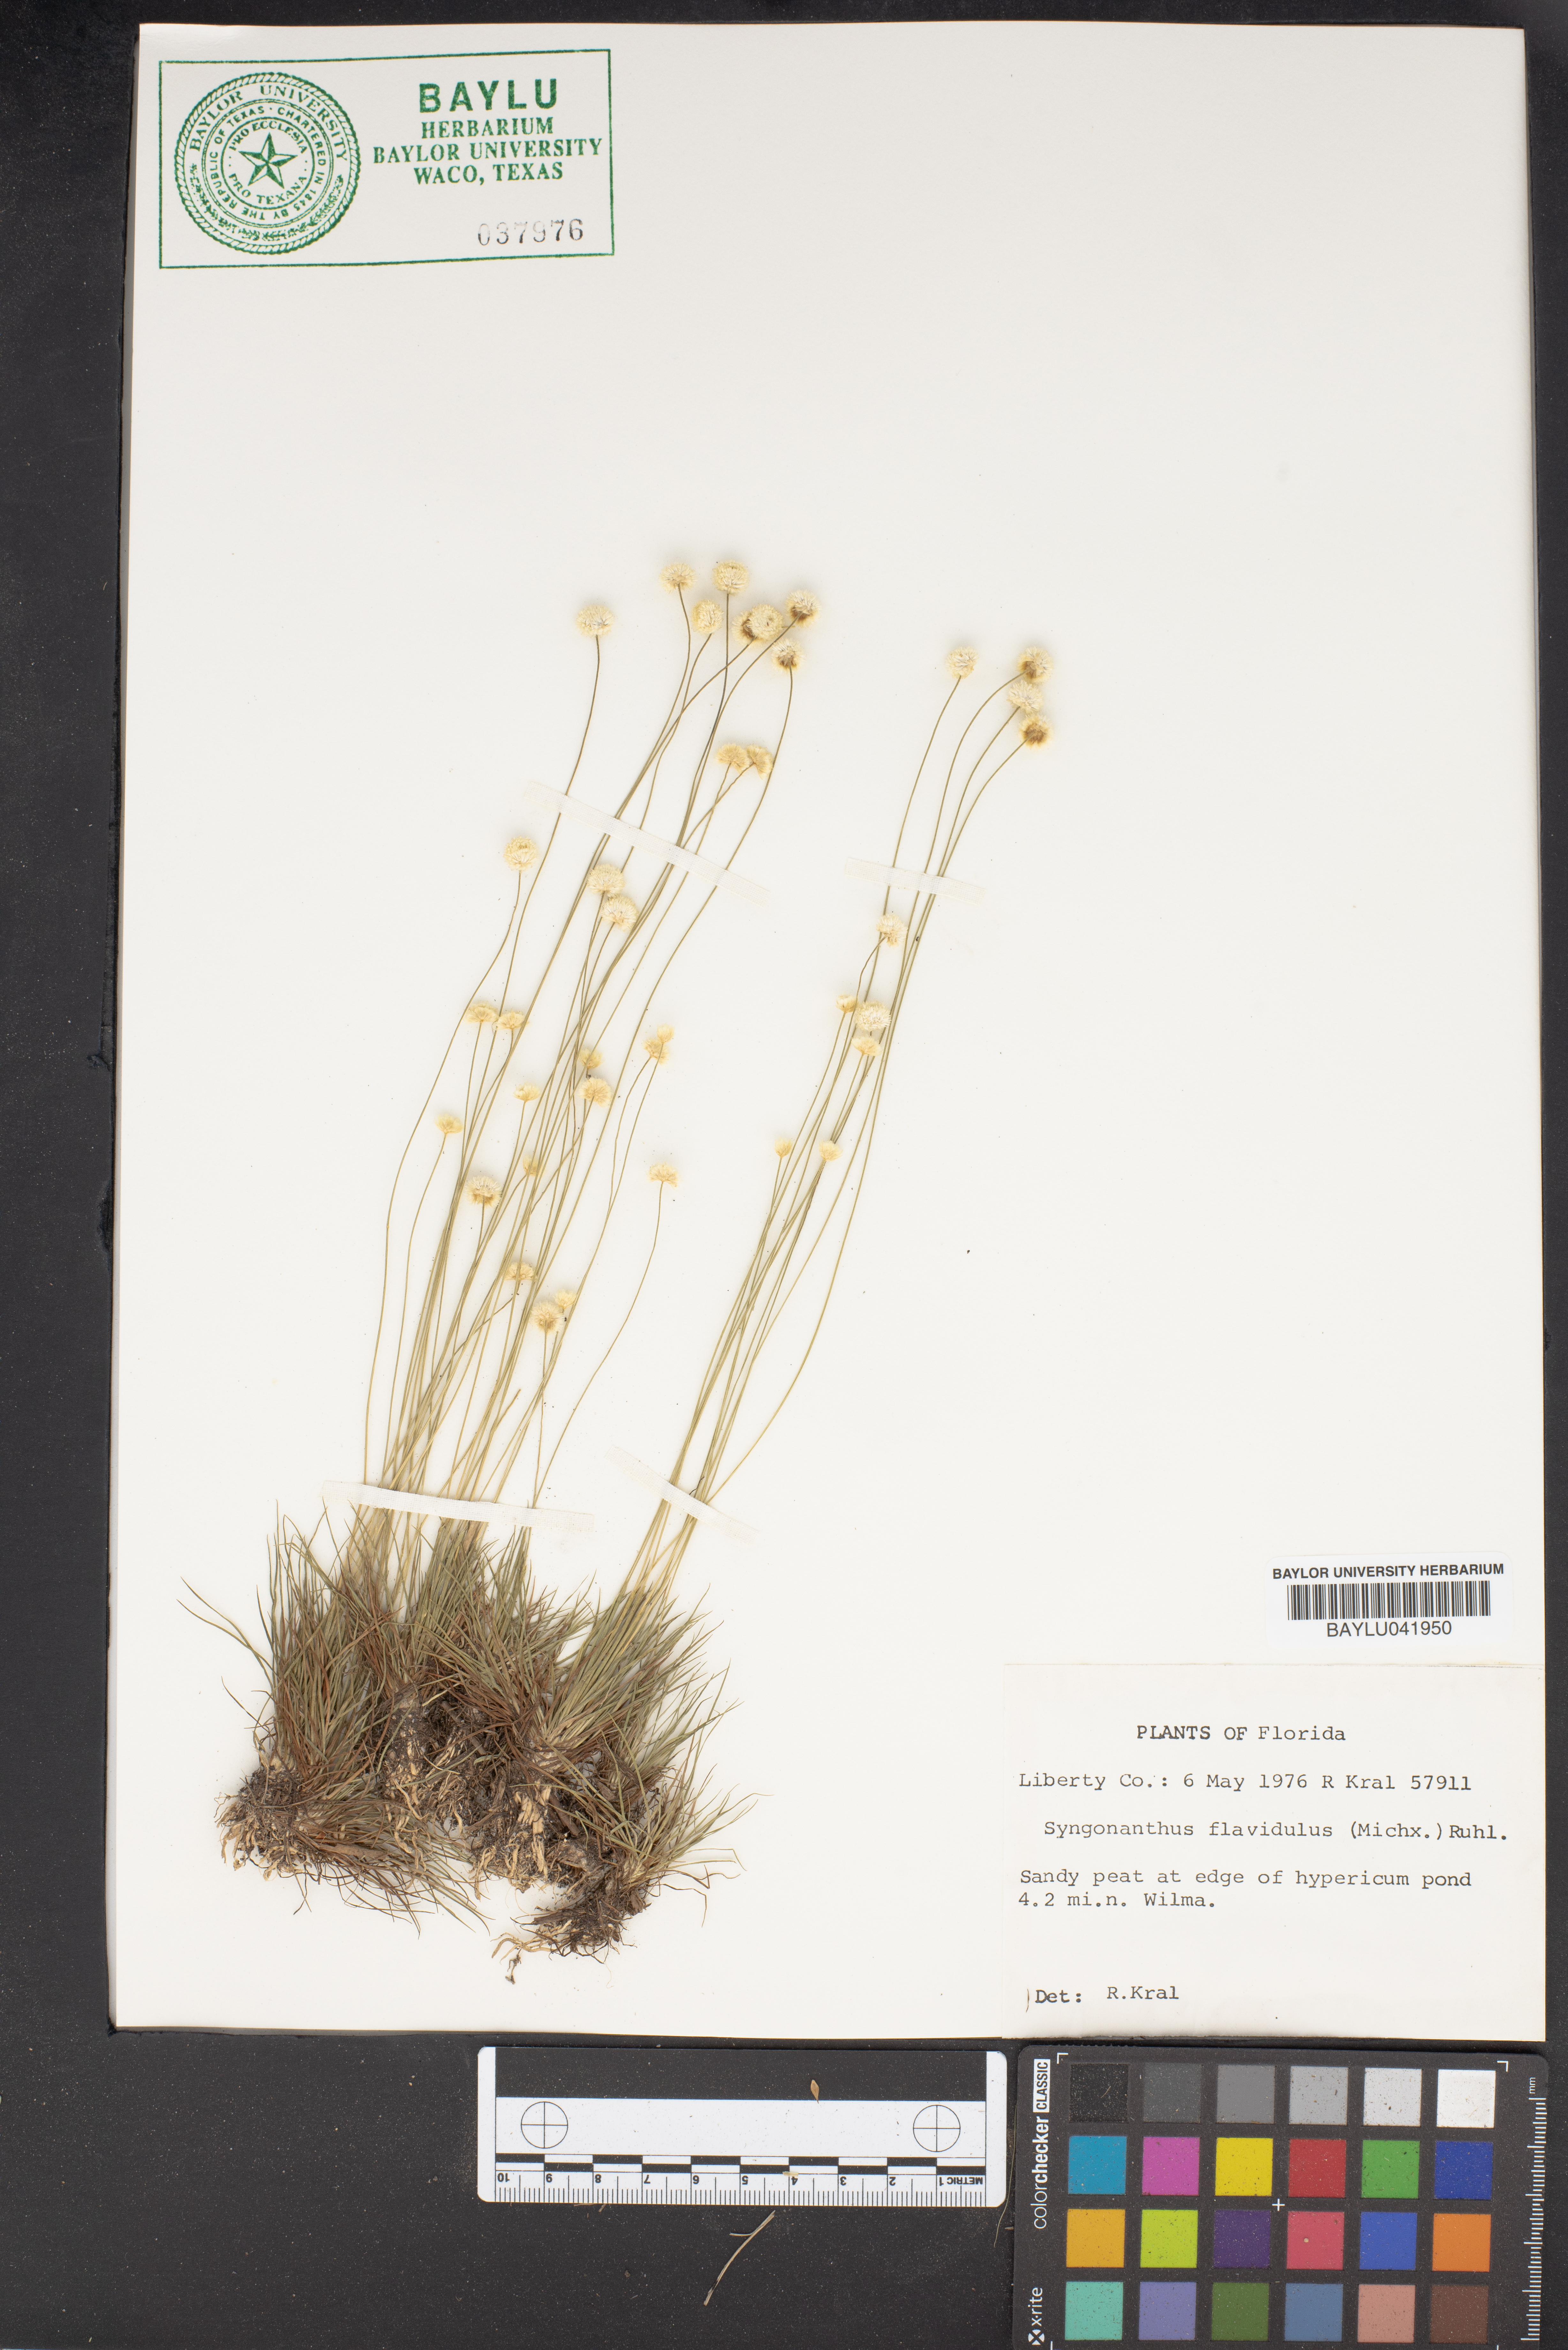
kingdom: Plantae
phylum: Tracheophyta
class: Liliopsida
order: Poales
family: Eriocaulaceae
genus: Syngonanthus
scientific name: Syngonanthus flavidulus
